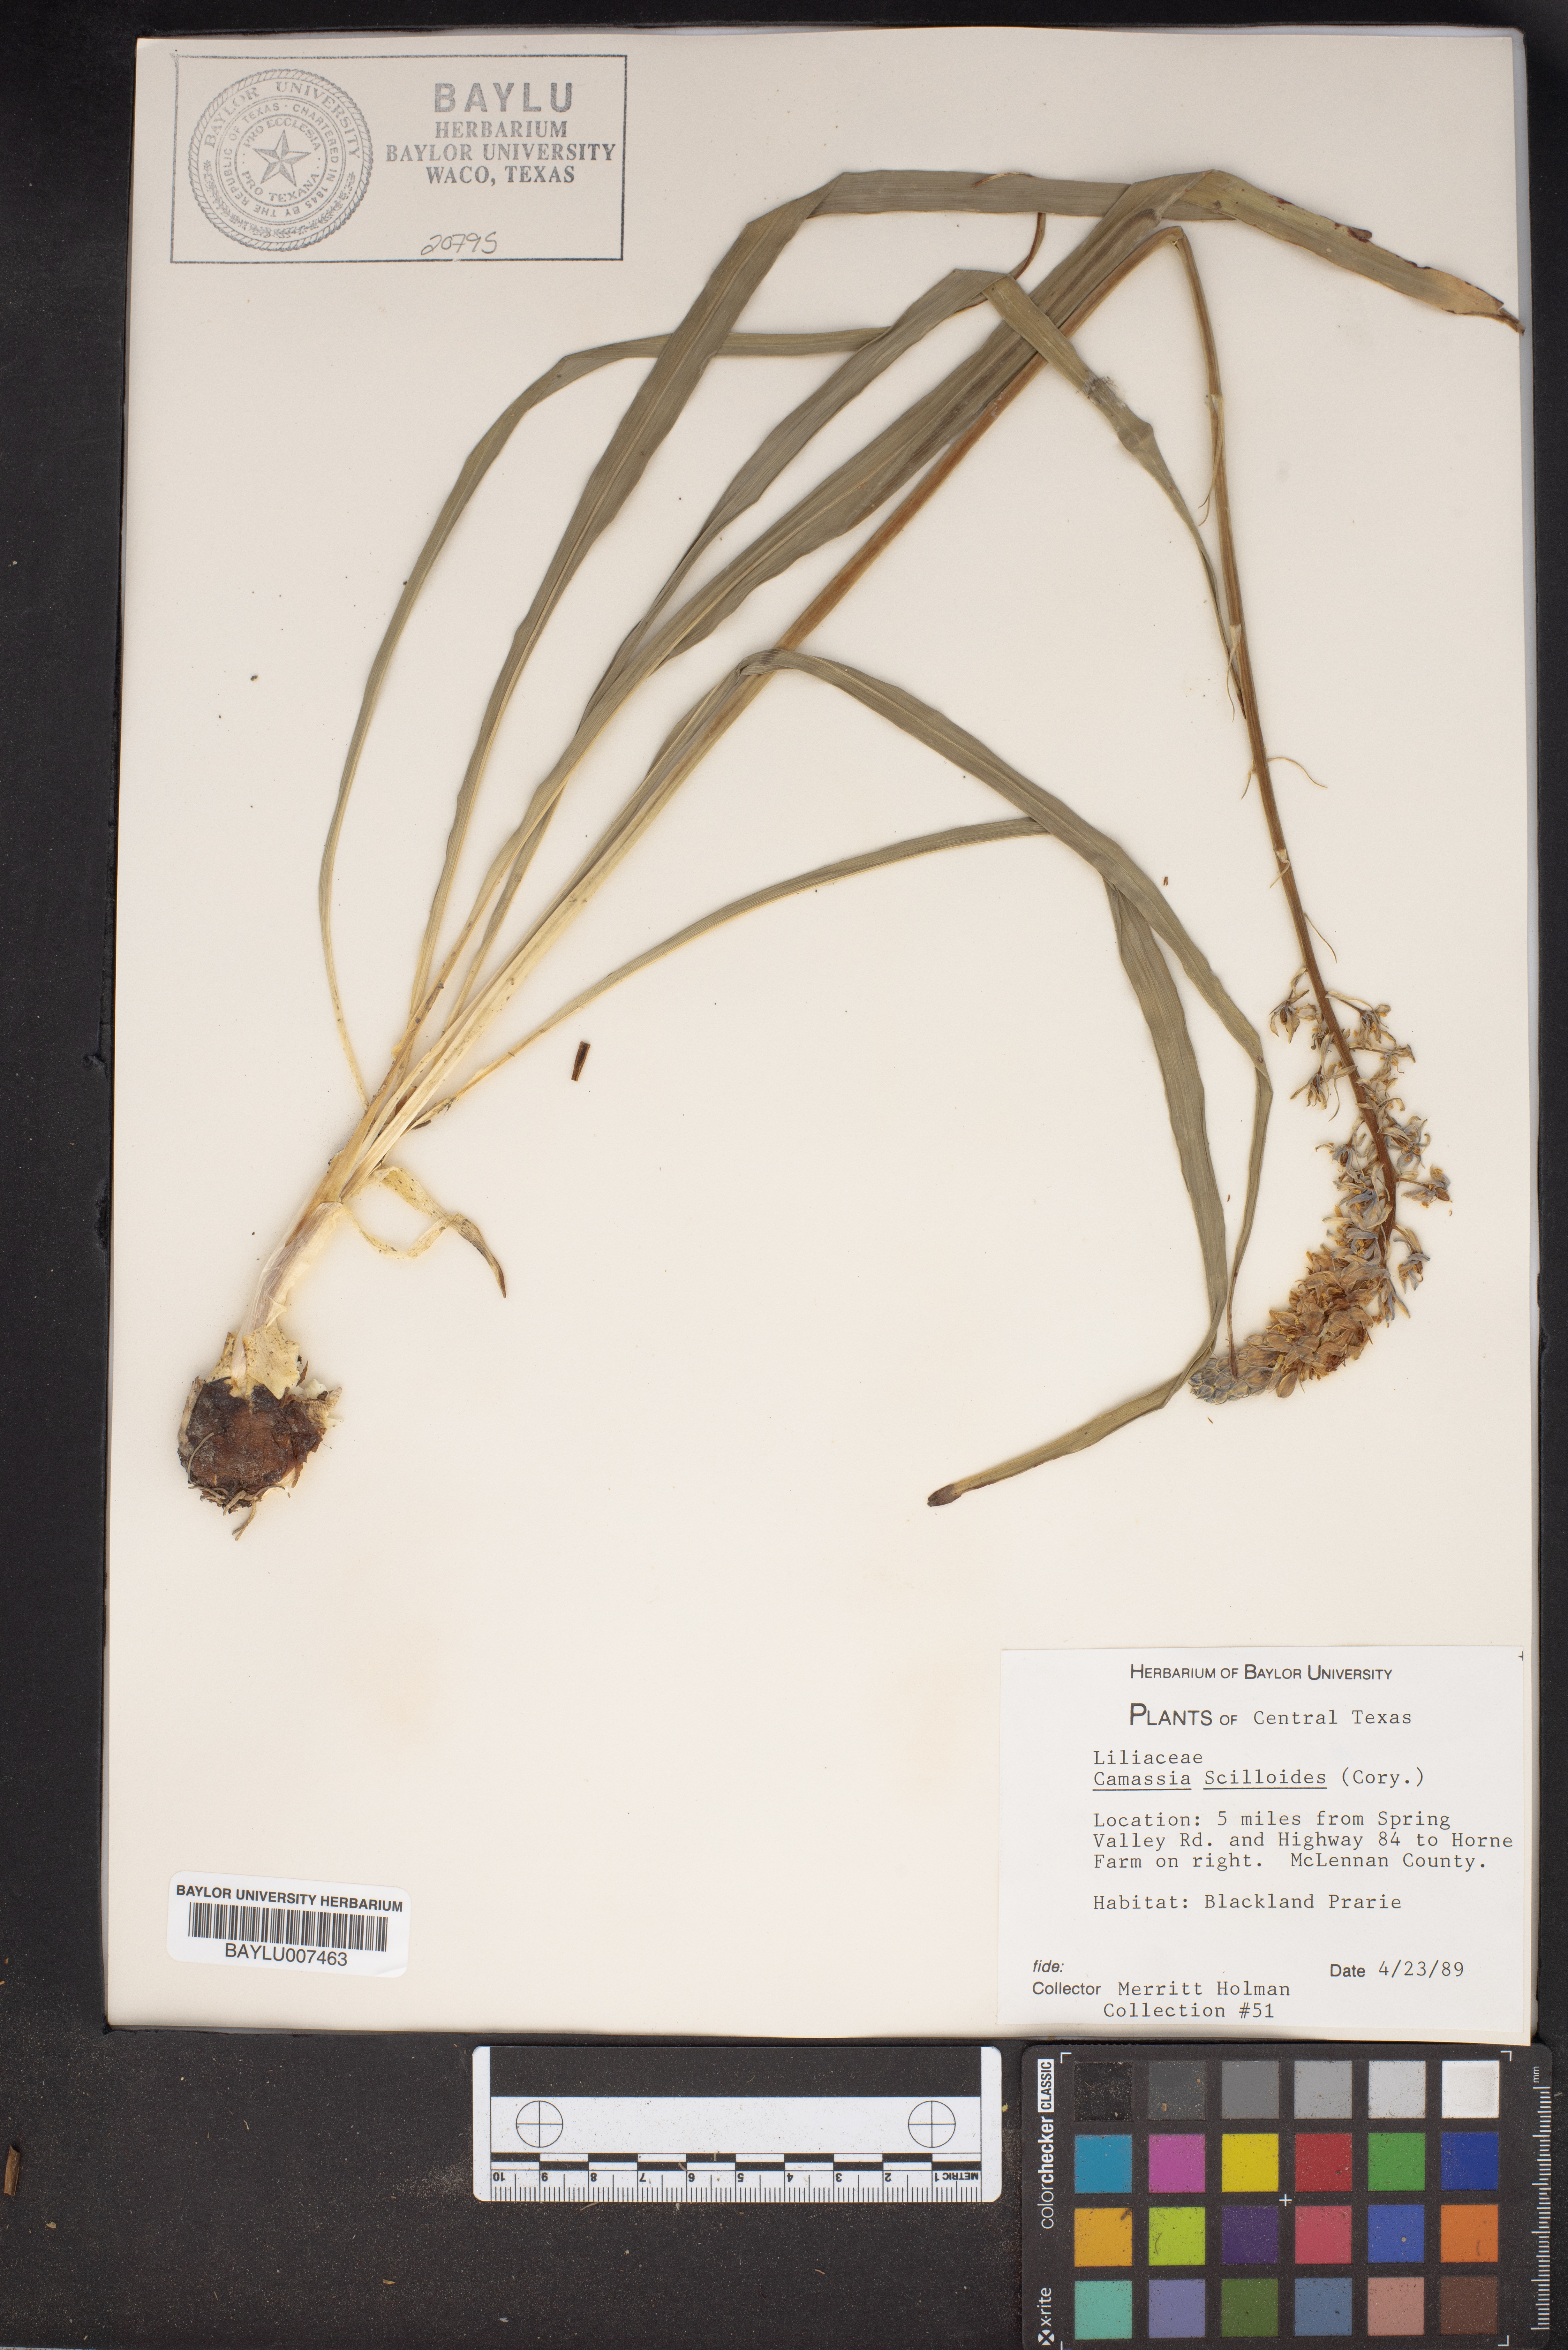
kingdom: Plantae
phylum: Tracheophyta
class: Liliopsida
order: Asparagales
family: Asparagaceae
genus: Camassia
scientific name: Camassia scilloides
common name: Wild hyacinth
